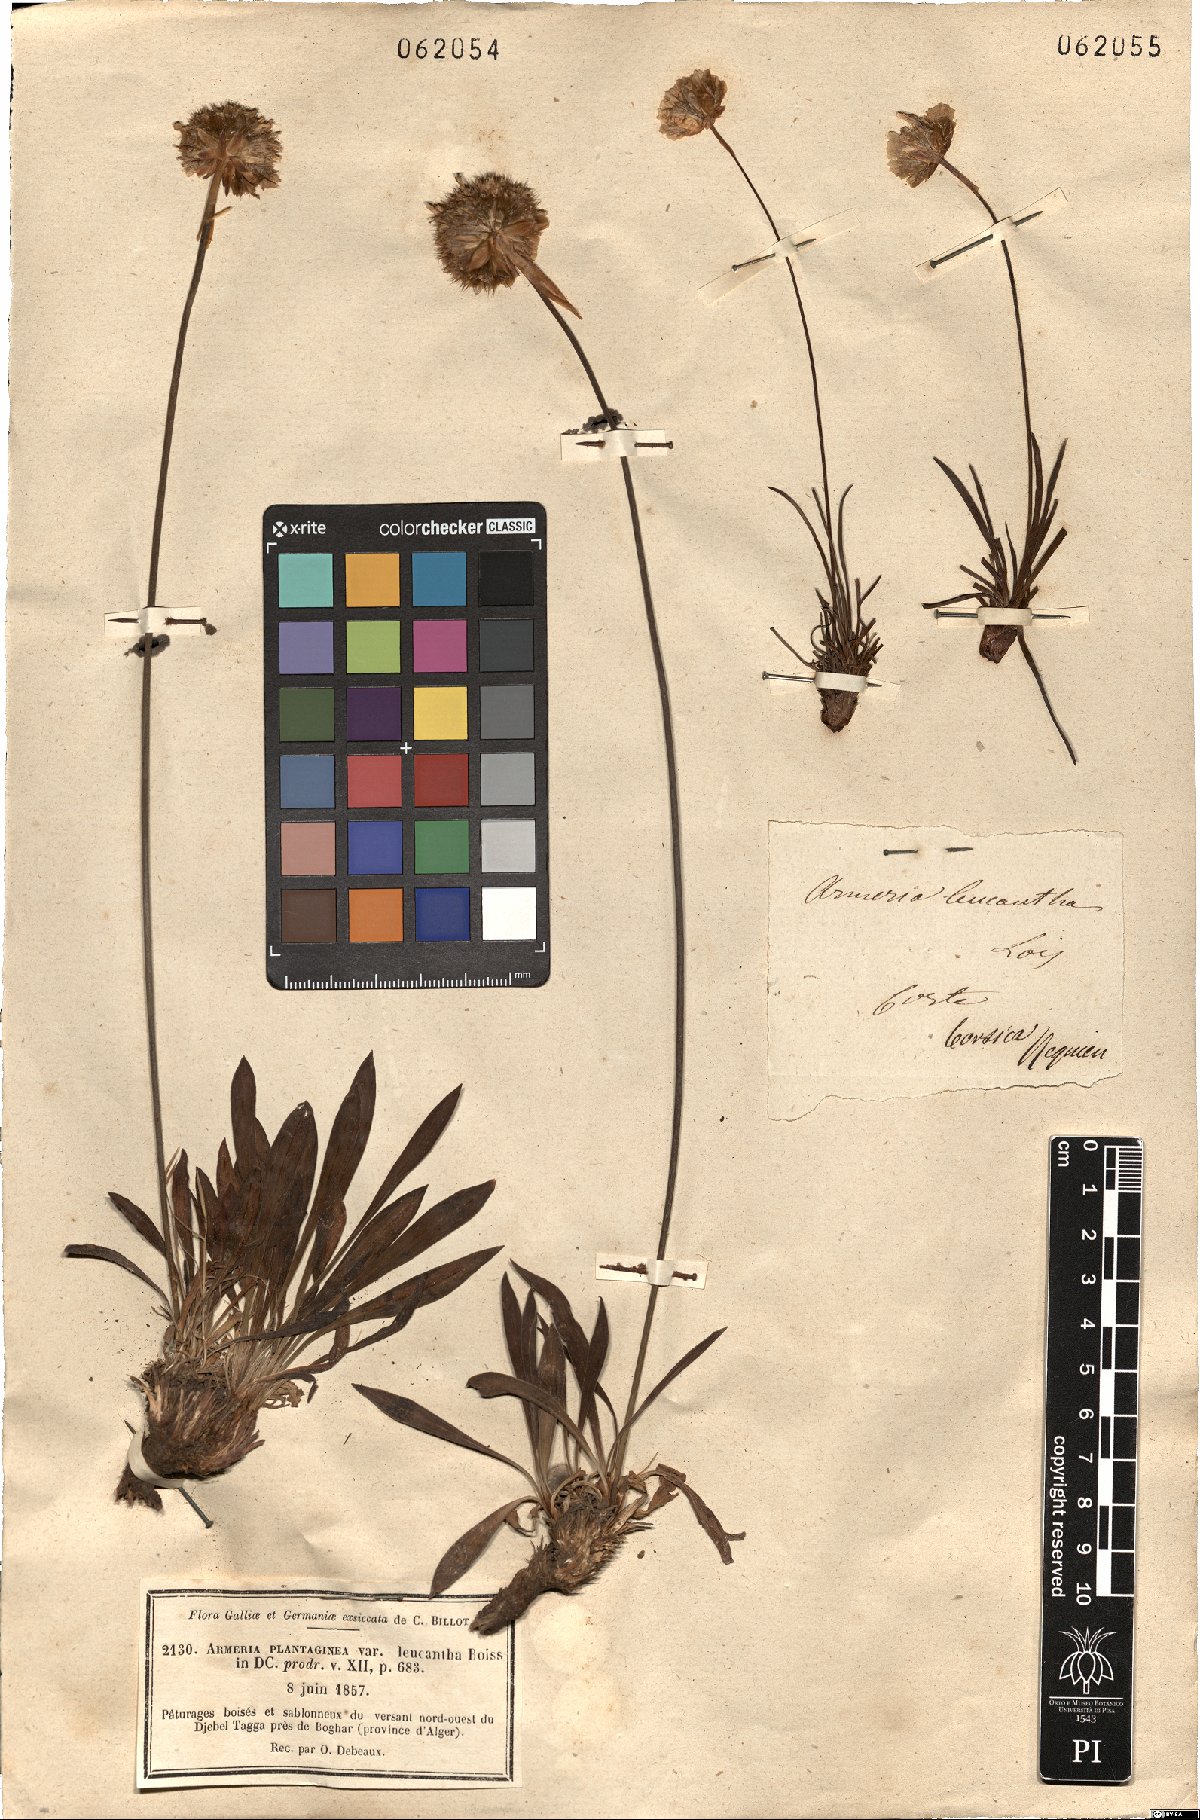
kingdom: Plantae
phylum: Tracheophyta
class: Magnoliopsida
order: Caryophyllales
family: Plumbaginaceae
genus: Armeria
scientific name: Armeria alliacea
